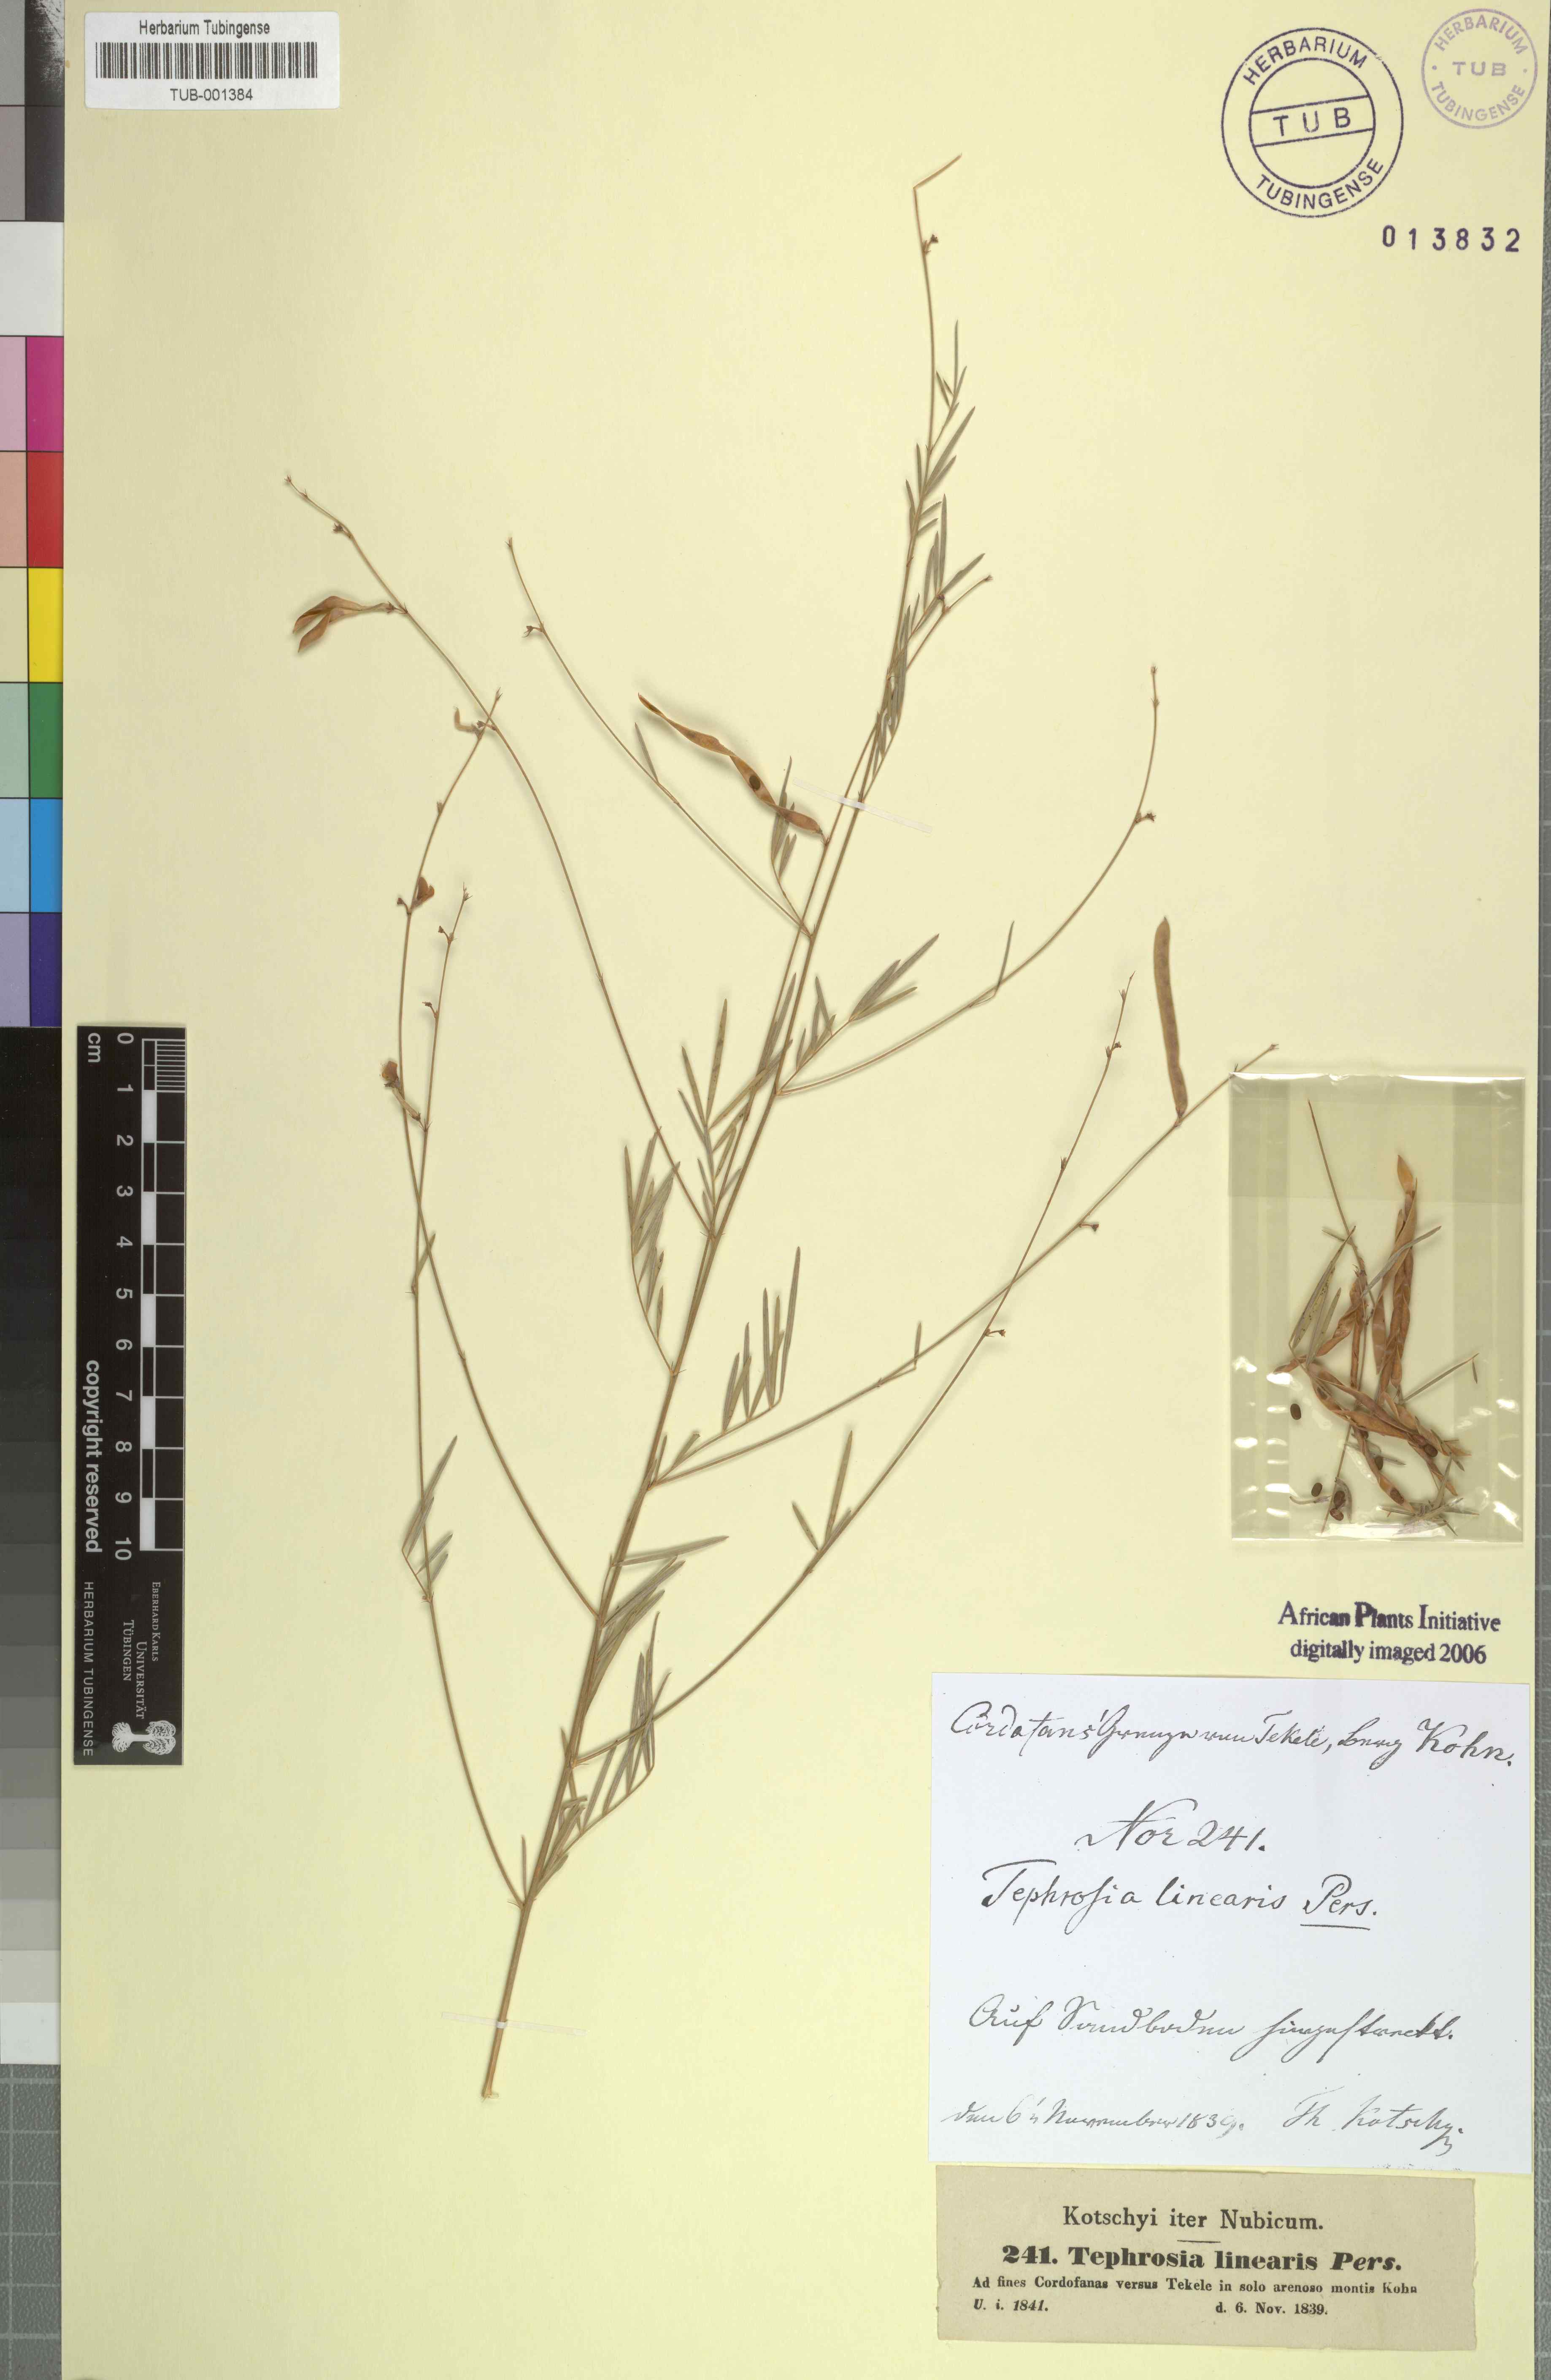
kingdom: Plantae
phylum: Tracheophyta
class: Magnoliopsida
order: Fabales
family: Fabaceae
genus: Tephrosia
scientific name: Tephrosia linearis
